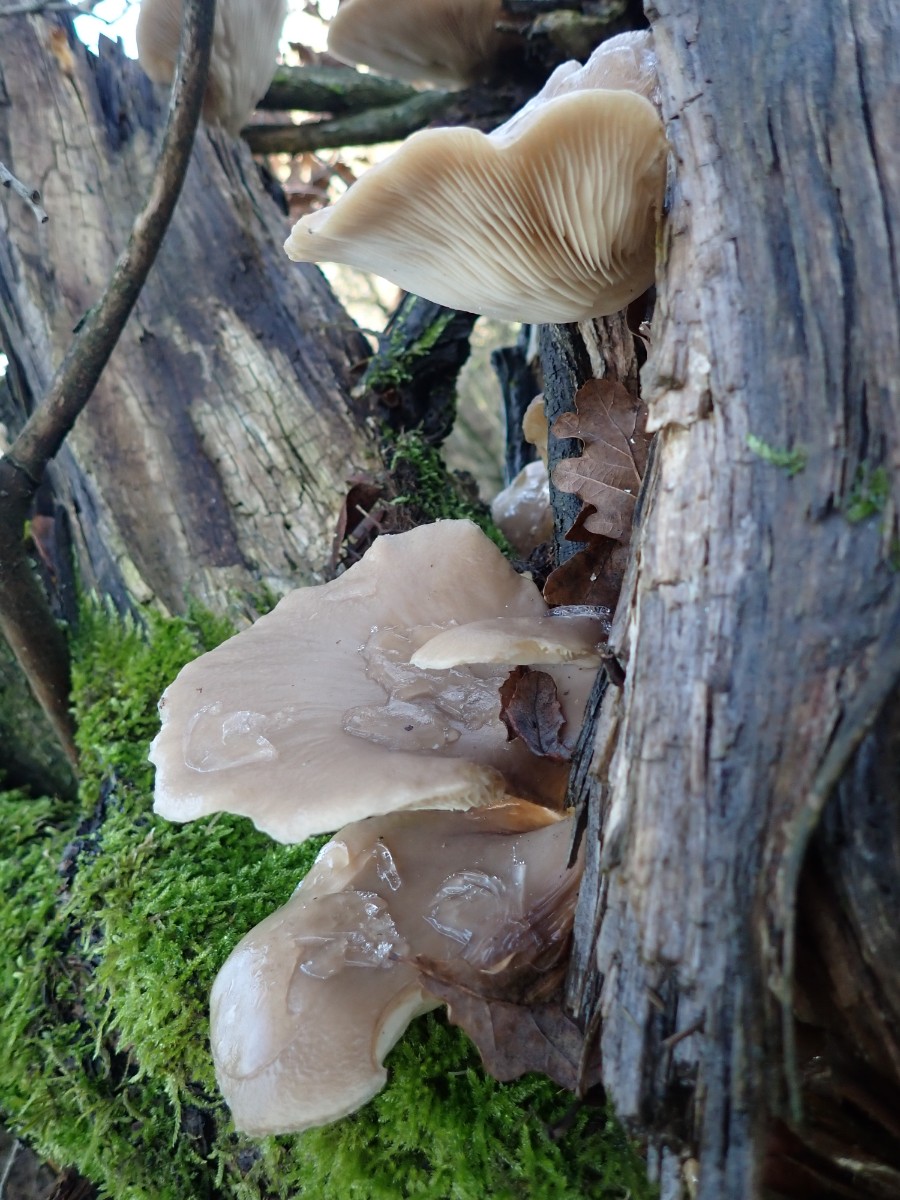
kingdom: Fungi
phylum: Basidiomycota
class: Agaricomycetes
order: Agaricales
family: Pleurotaceae
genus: Pleurotus
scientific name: Pleurotus ostreatus
